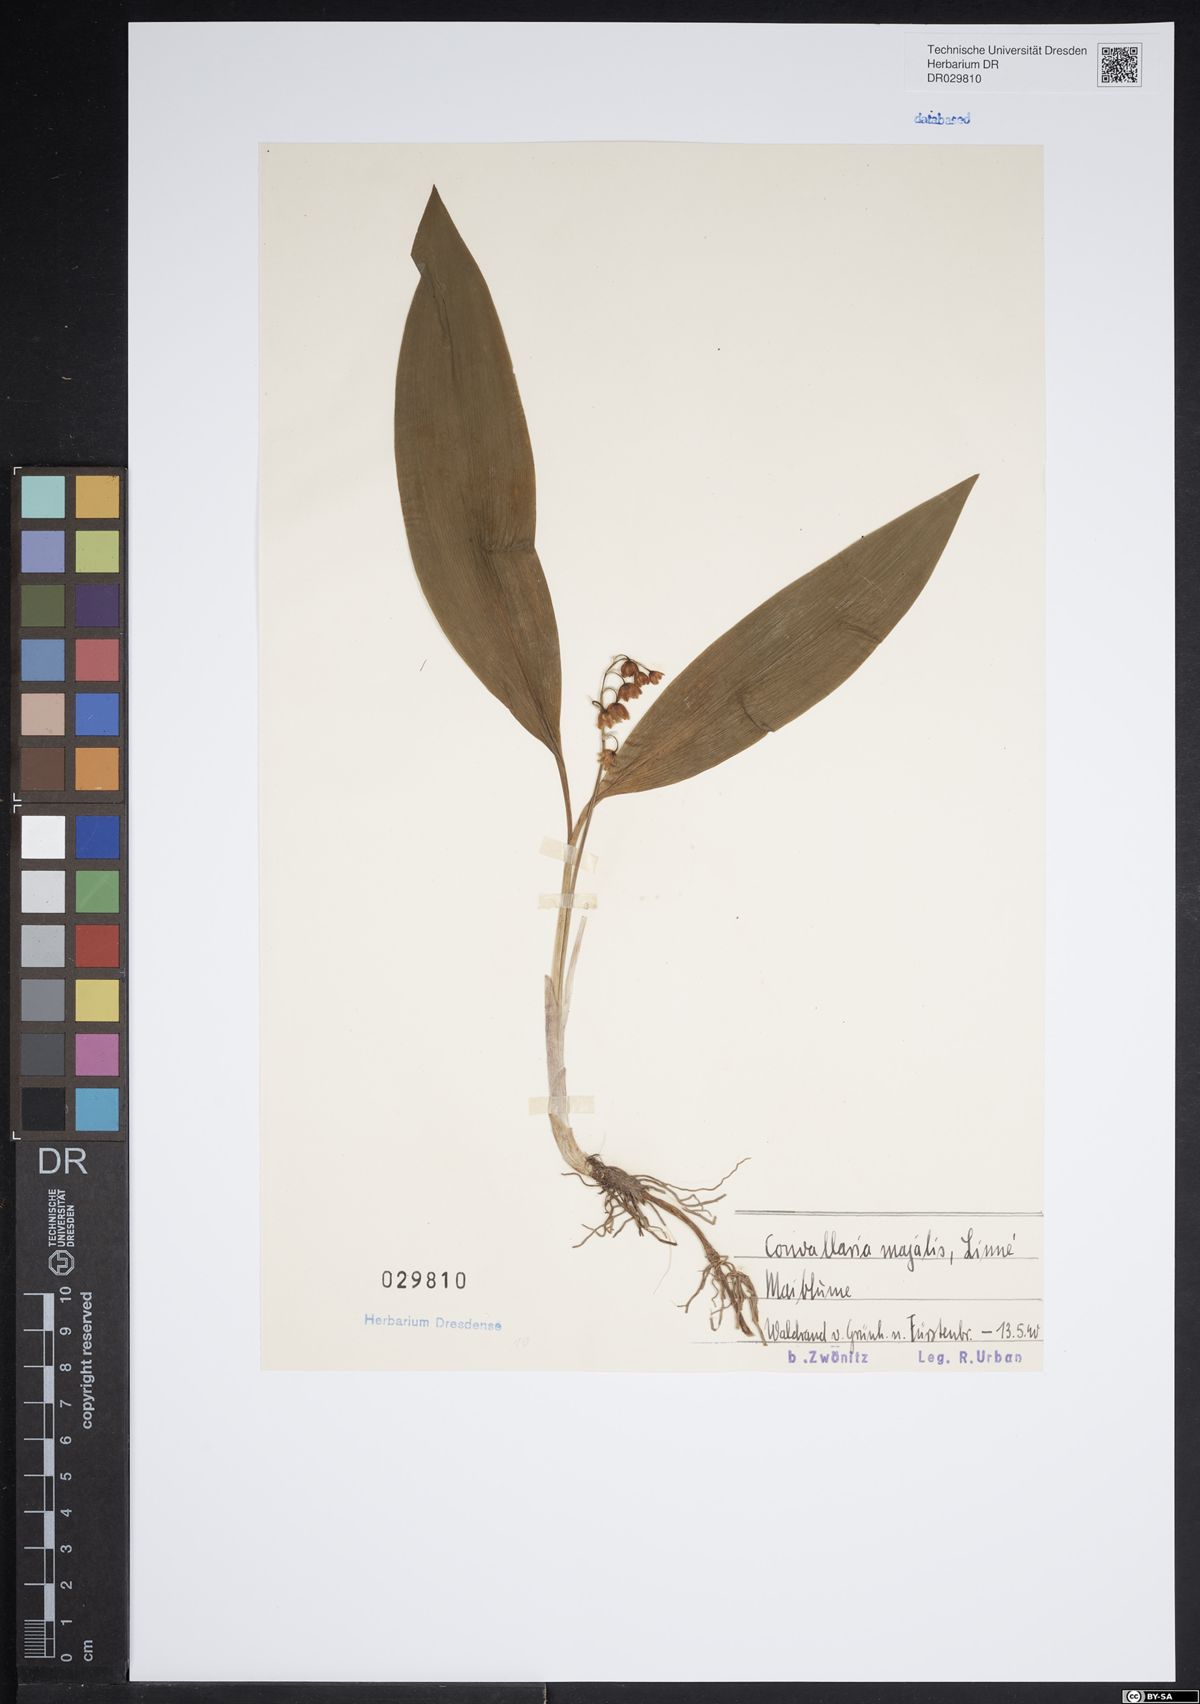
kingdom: Plantae
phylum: Tracheophyta
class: Liliopsida
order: Asparagales
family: Asparagaceae
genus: Convallaria
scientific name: Convallaria majalis
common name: Lily-of-the-valley
